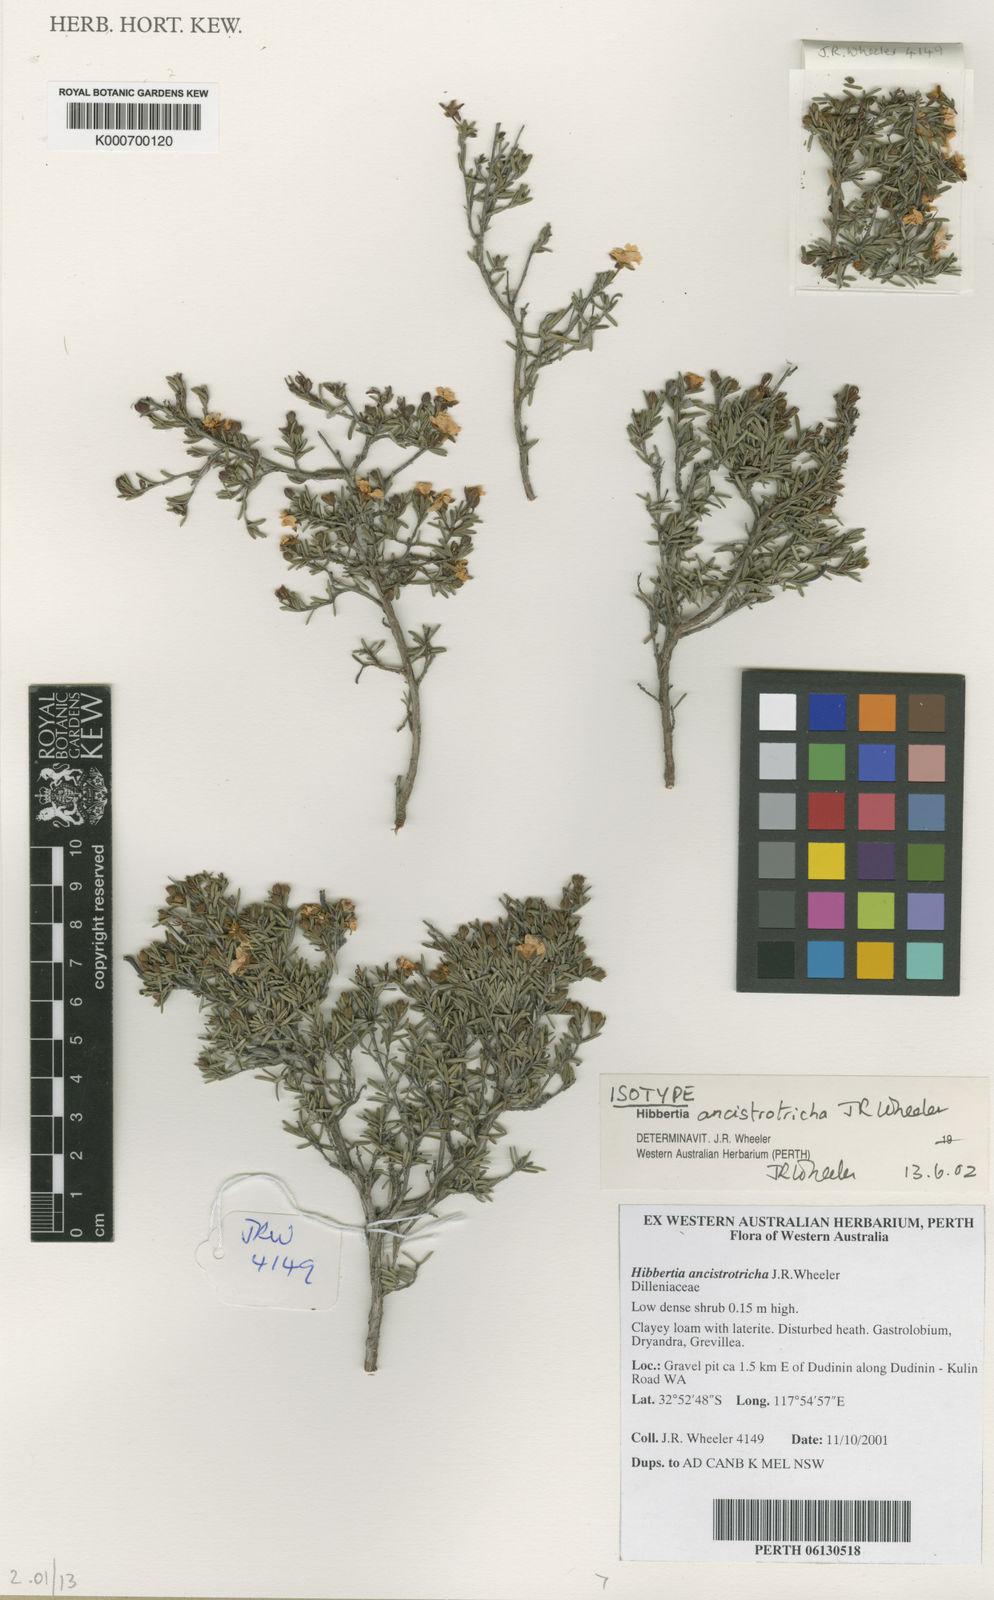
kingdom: Plantae
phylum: Tracheophyta
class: Magnoliopsida
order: Dilleniales
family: Dilleniaceae
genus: Hibbertia
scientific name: Hibbertia ancistrotricha
